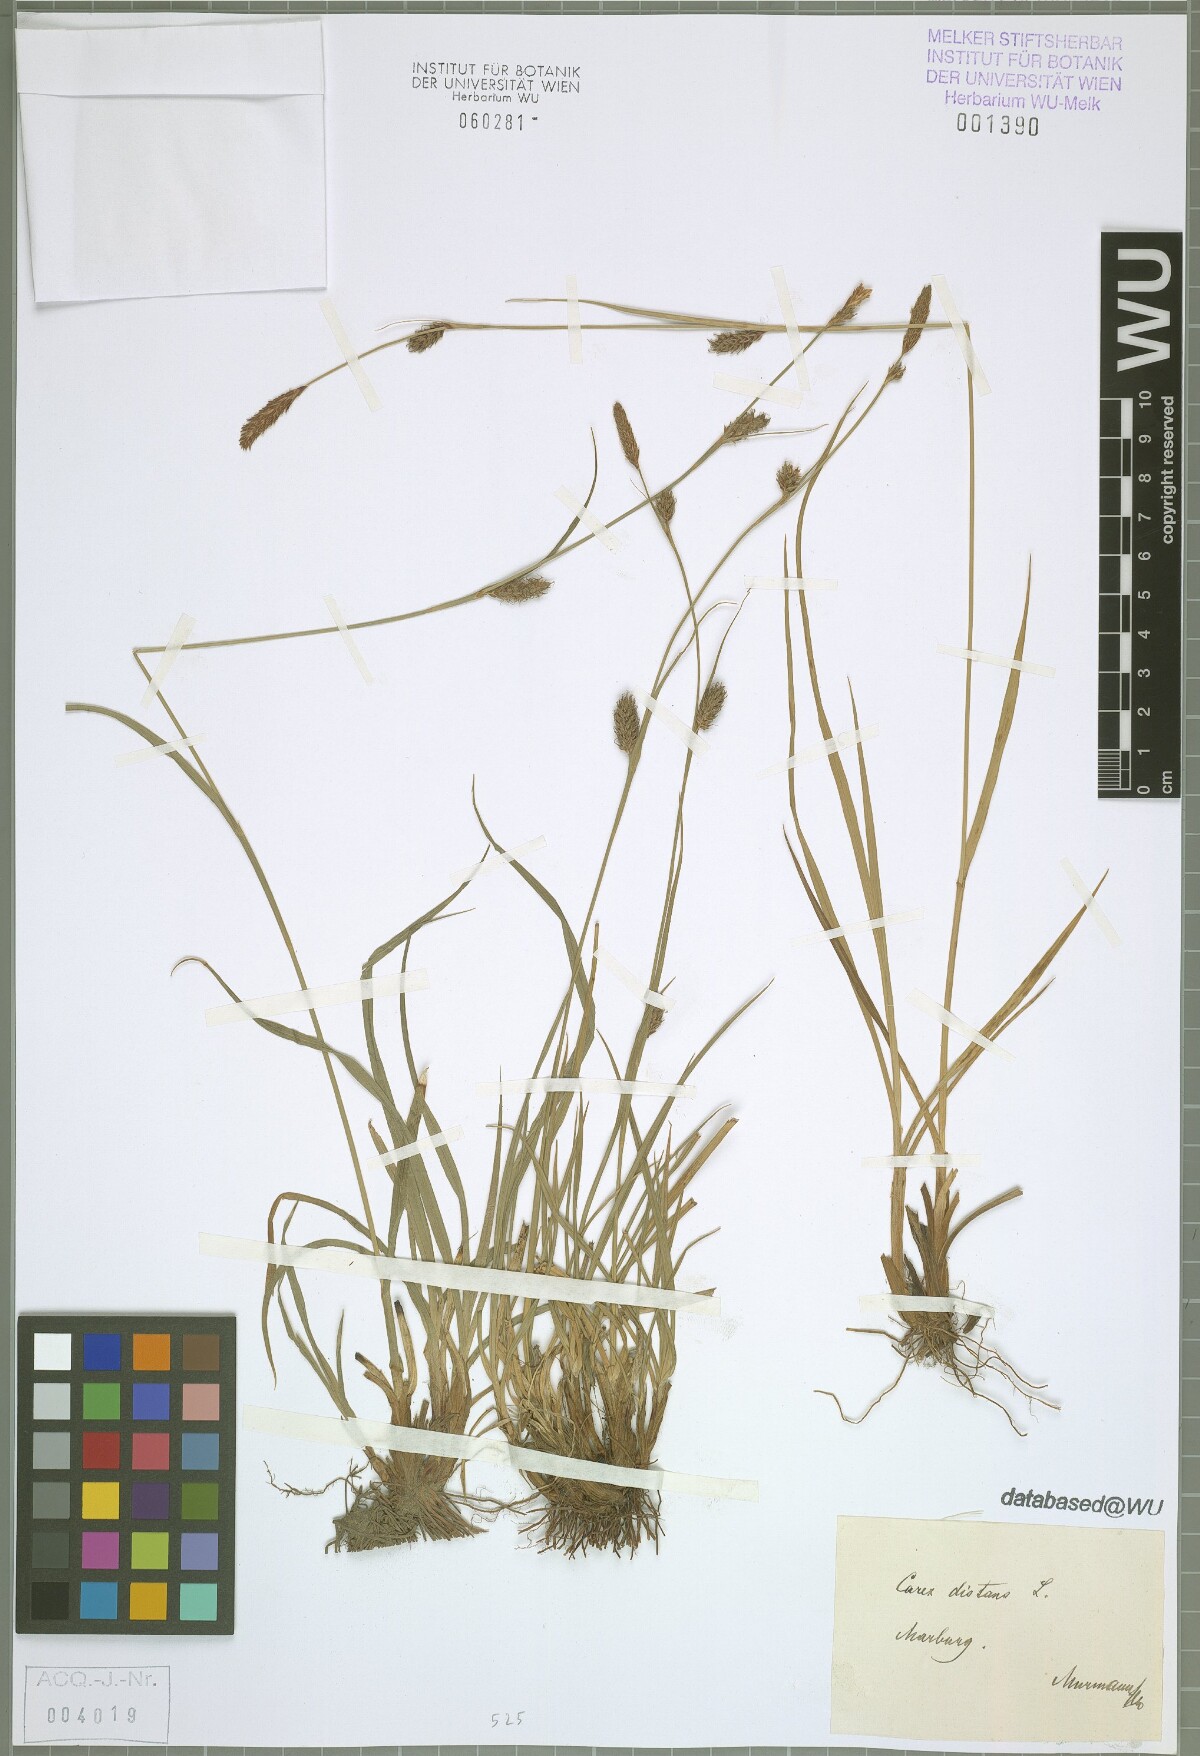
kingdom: Plantae
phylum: Tracheophyta
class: Liliopsida
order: Poales
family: Cyperaceae
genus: Carex
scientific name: Carex distans
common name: Distant sedge
